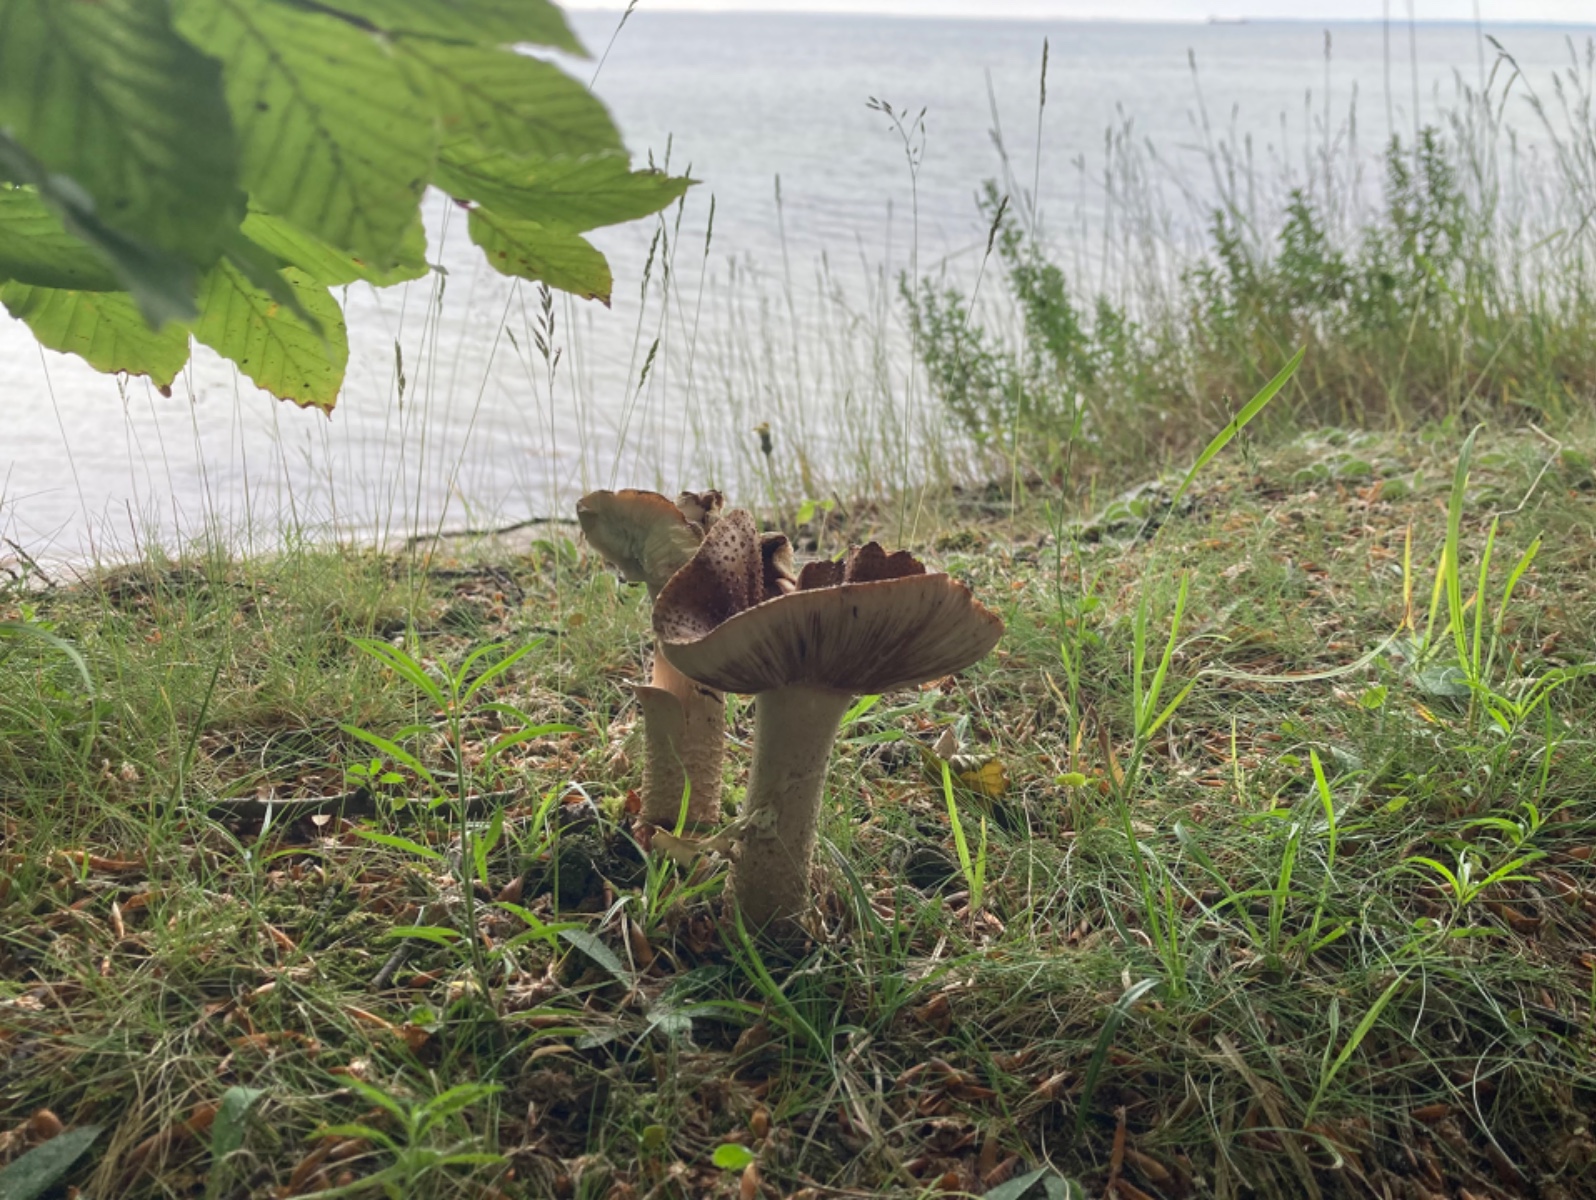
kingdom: Fungi
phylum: Basidiomycota
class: Agaricomycetes
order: Agaricales
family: Amanitaceae
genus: Amanita
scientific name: Amanita rubescens
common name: rødmende fluesvamp
